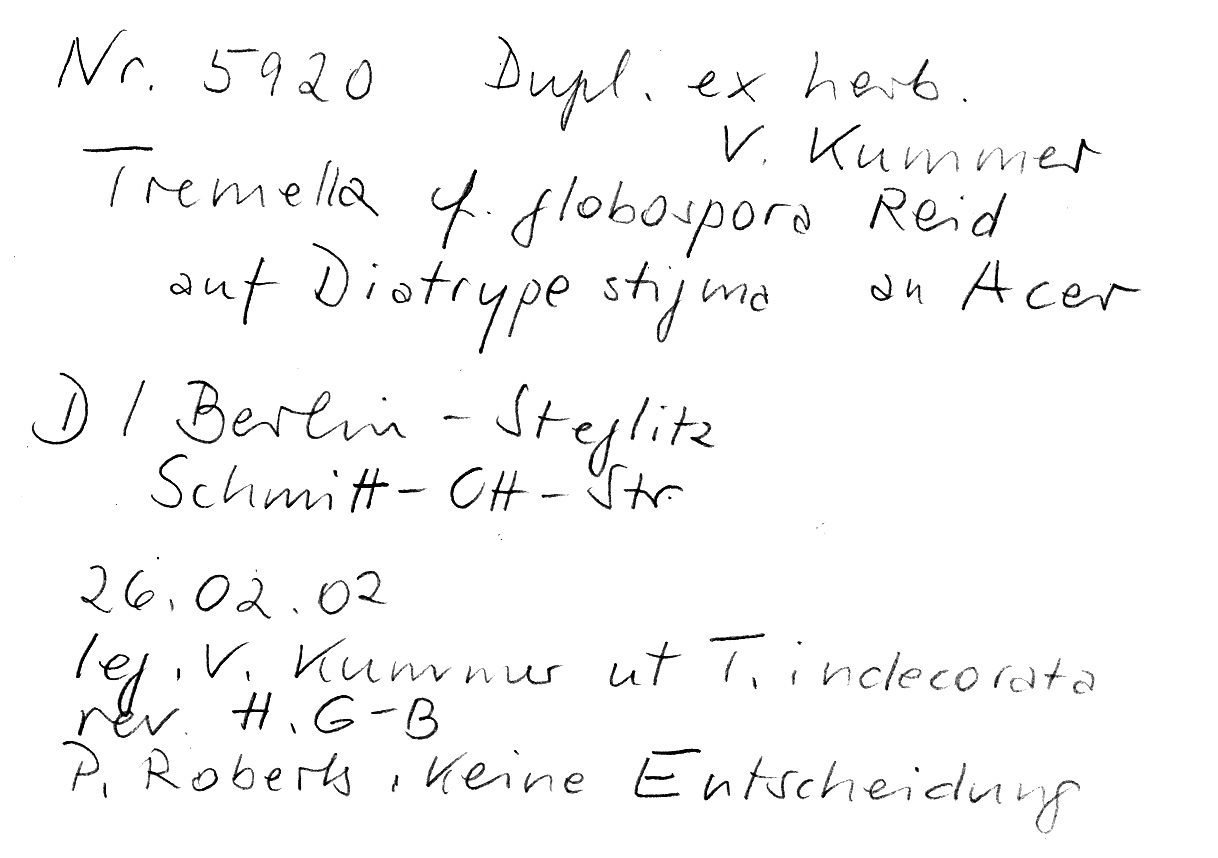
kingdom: Fungi
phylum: Ascomycota
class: Sordariomycetes
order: Xylariales
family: Diatrypaceae
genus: Diatrype
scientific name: Diatrype stigma
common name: Common tarcrust
